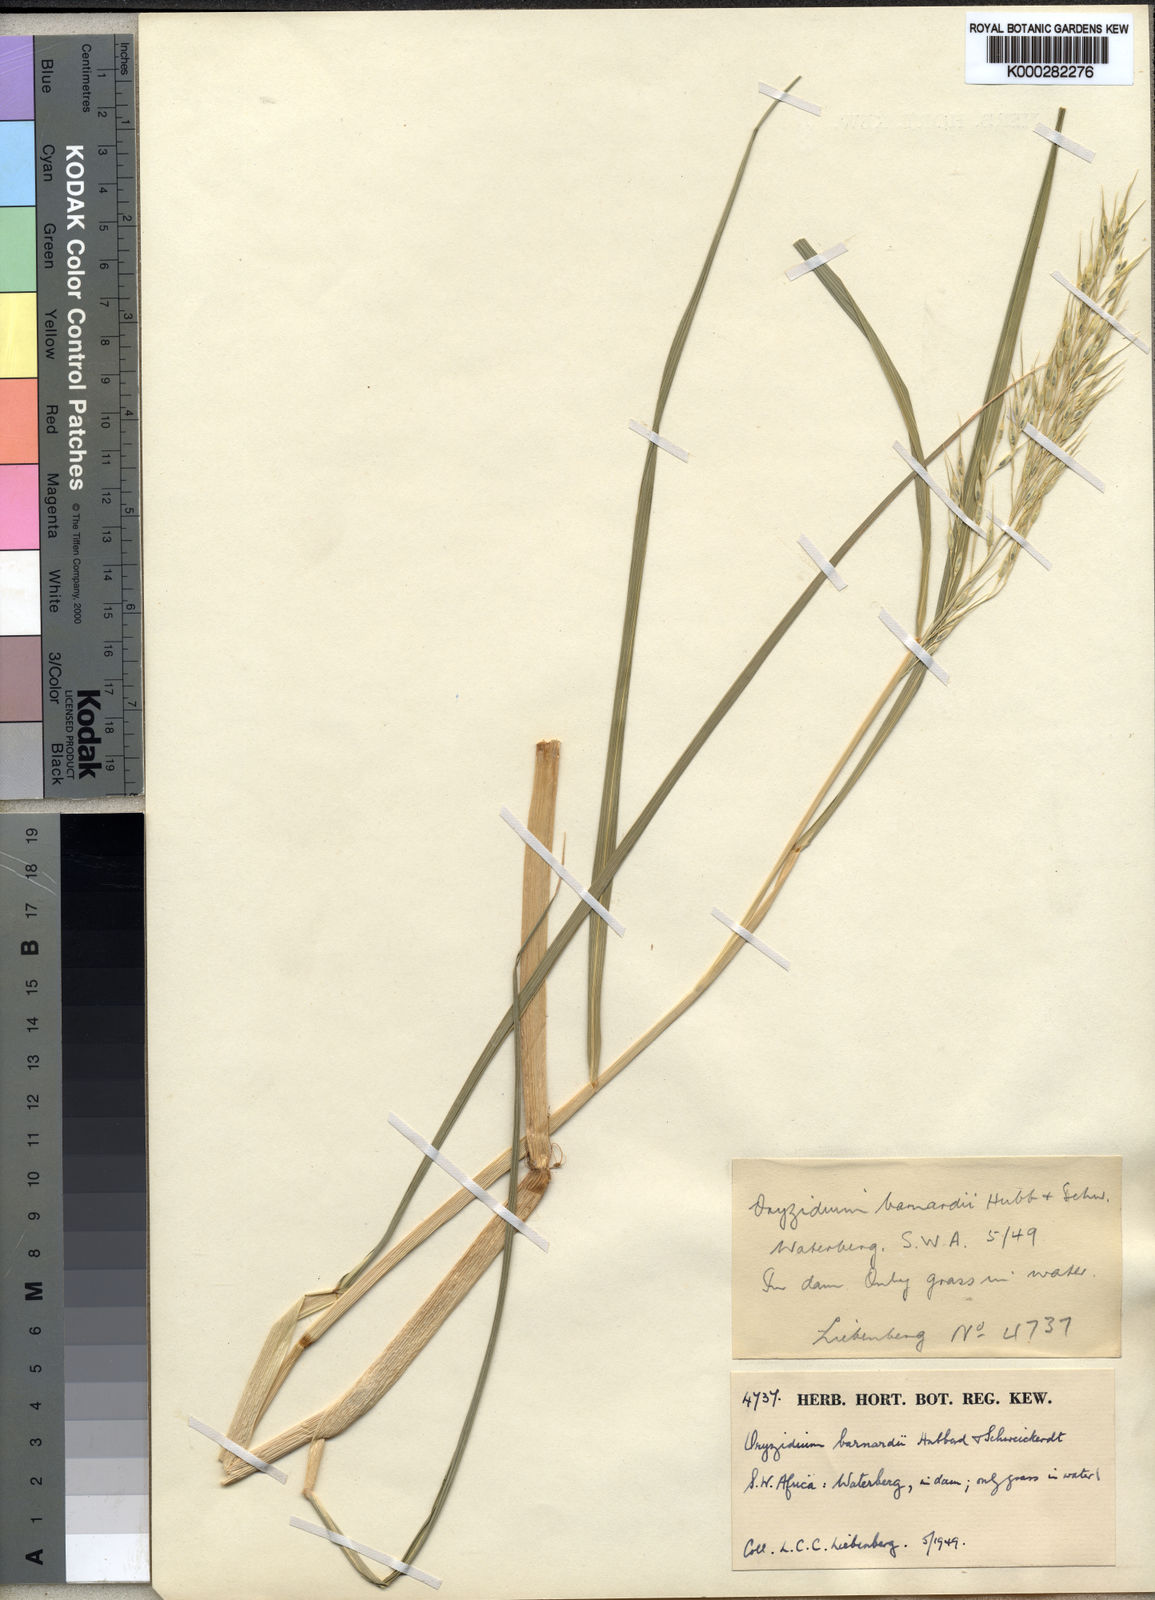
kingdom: Plantae
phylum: Tracheophyta
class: Liliopsida
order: Poales
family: Poaceae
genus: Oryzidium
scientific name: Oryzidium barnardii
